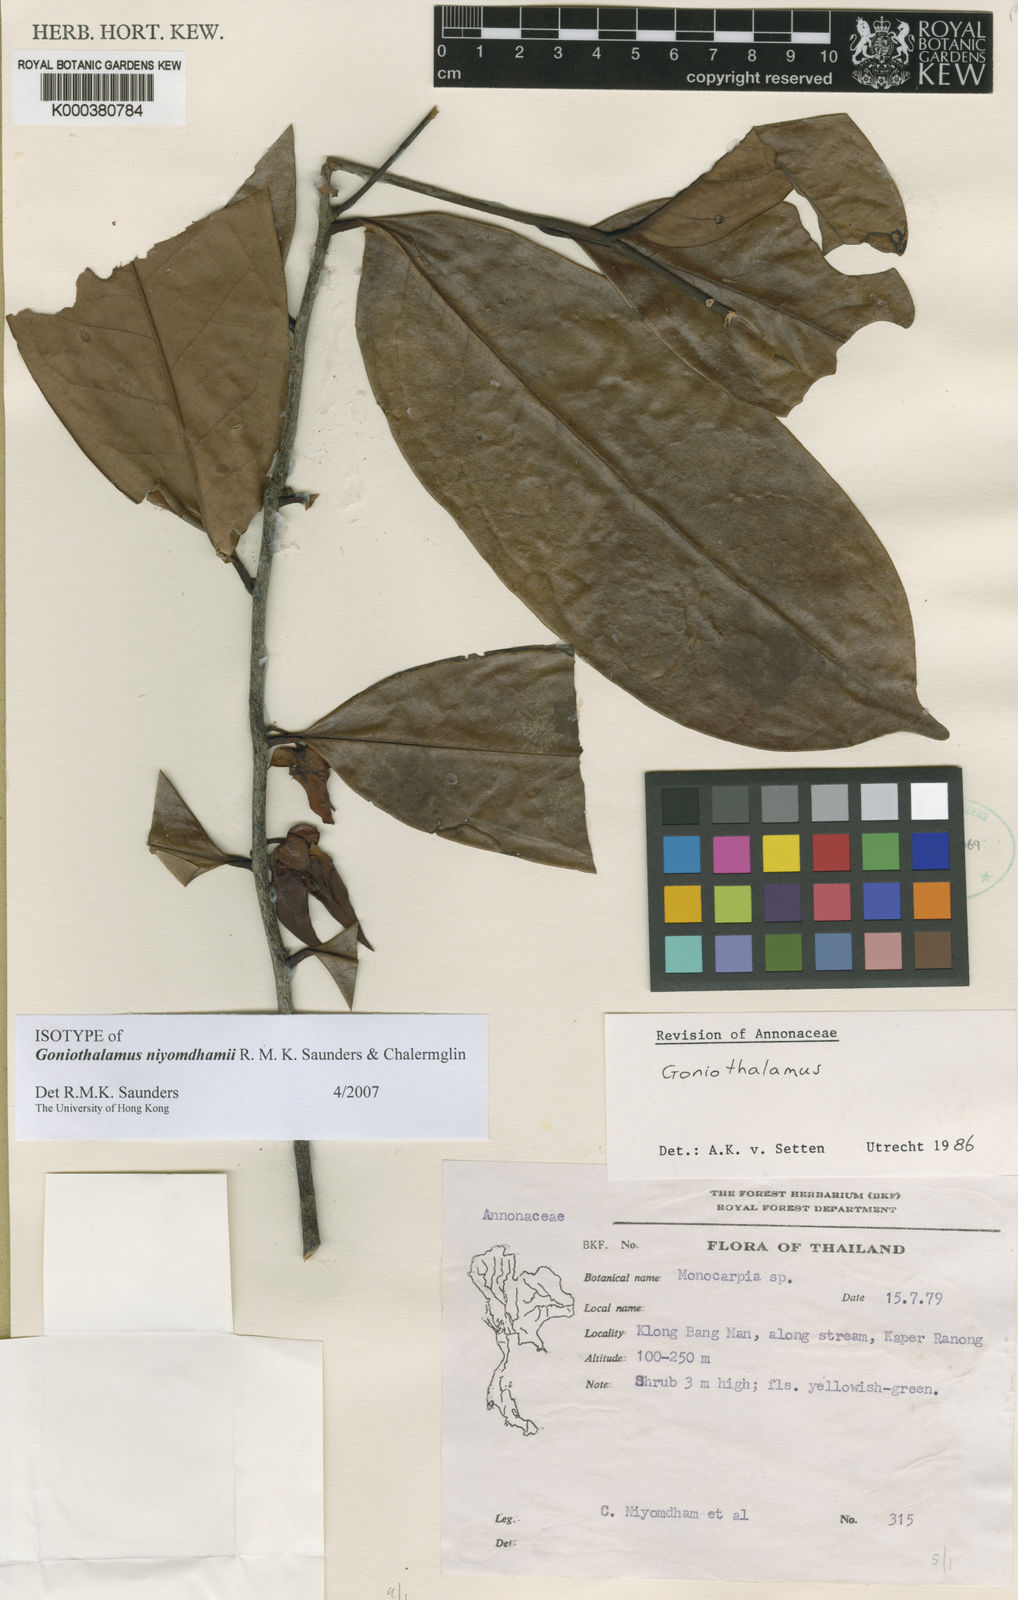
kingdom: Plantae
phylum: Tracheophyta
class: Magnoliopsida
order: Magnoliales
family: Annonaceae
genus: Goniothalamus
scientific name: Goniothalamus
